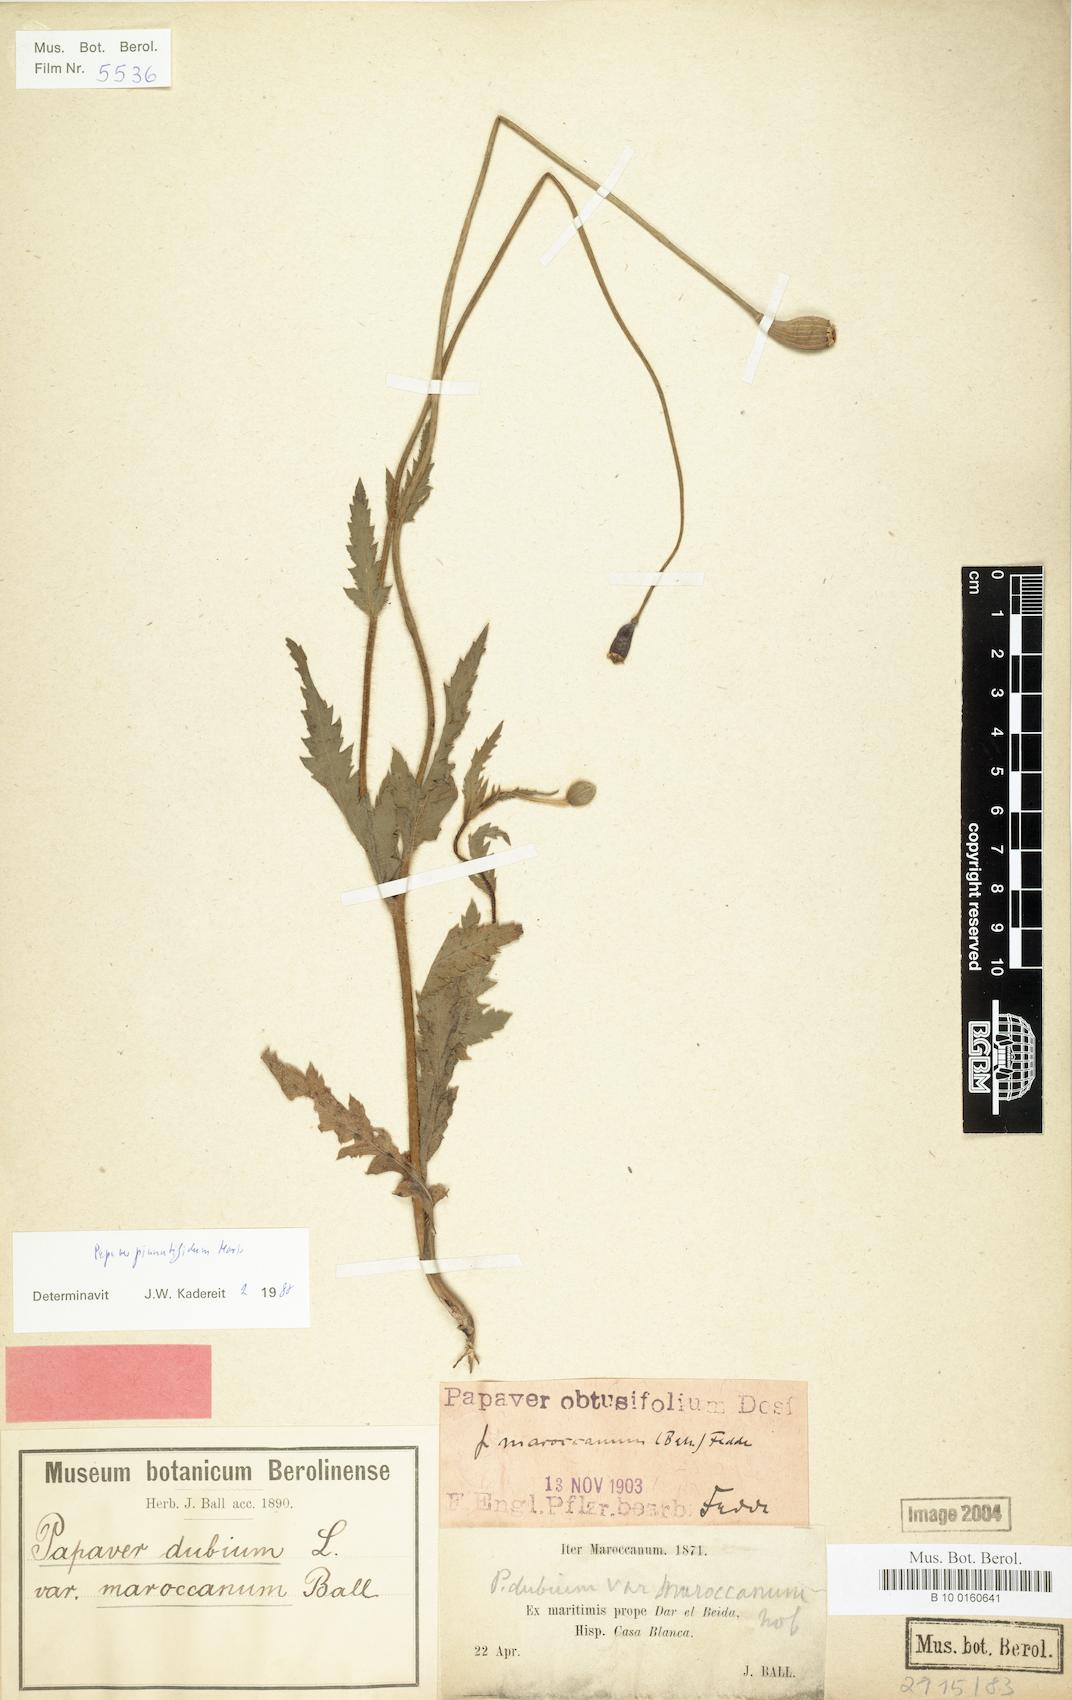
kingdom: Plantae
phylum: Tracheophyta
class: Magnoliopsida
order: Ranunculales
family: Papaveraceae
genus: Papaver
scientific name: Papaver pinnatifidum
